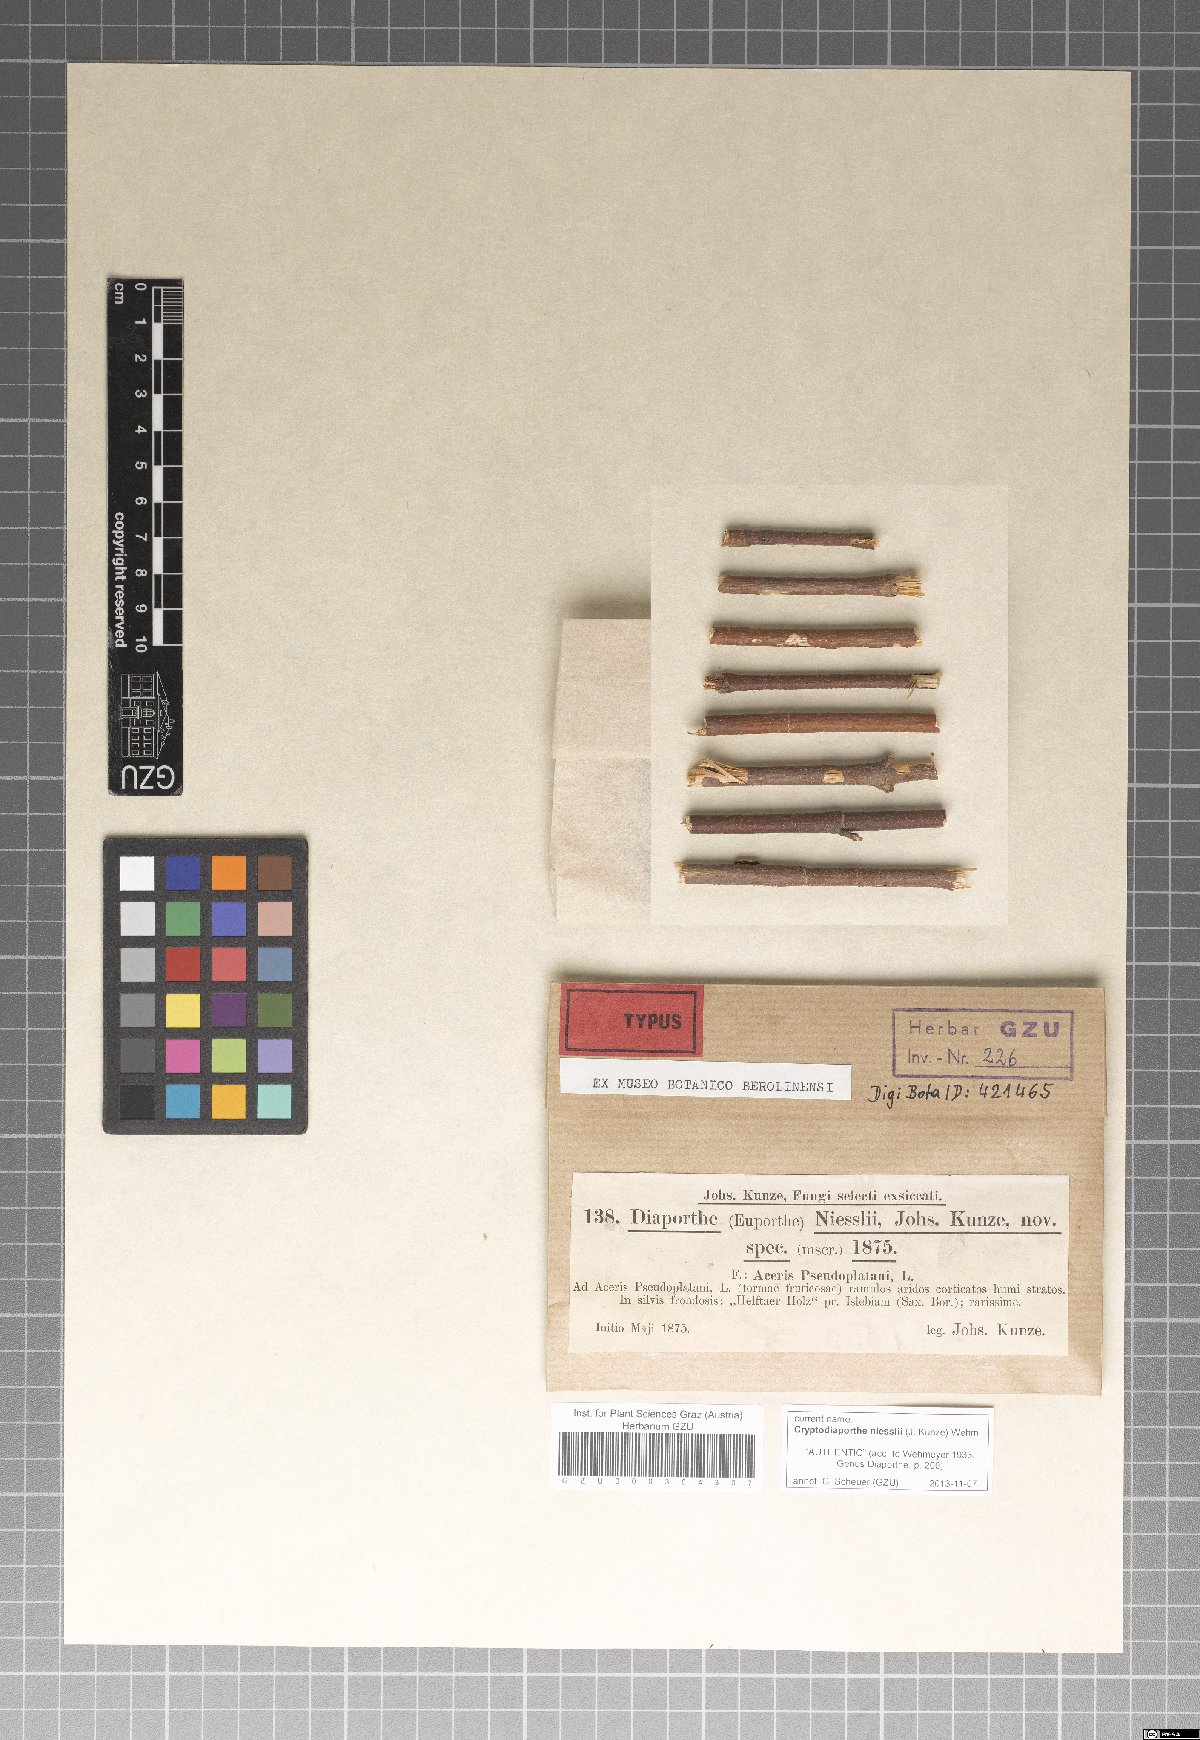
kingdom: Fungi
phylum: Ascomycota
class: Sordariomycetes
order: Diaporthales
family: Gnomoniaceae
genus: Cryptodiaporthe
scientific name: Cryptodiaporthe niesslii
